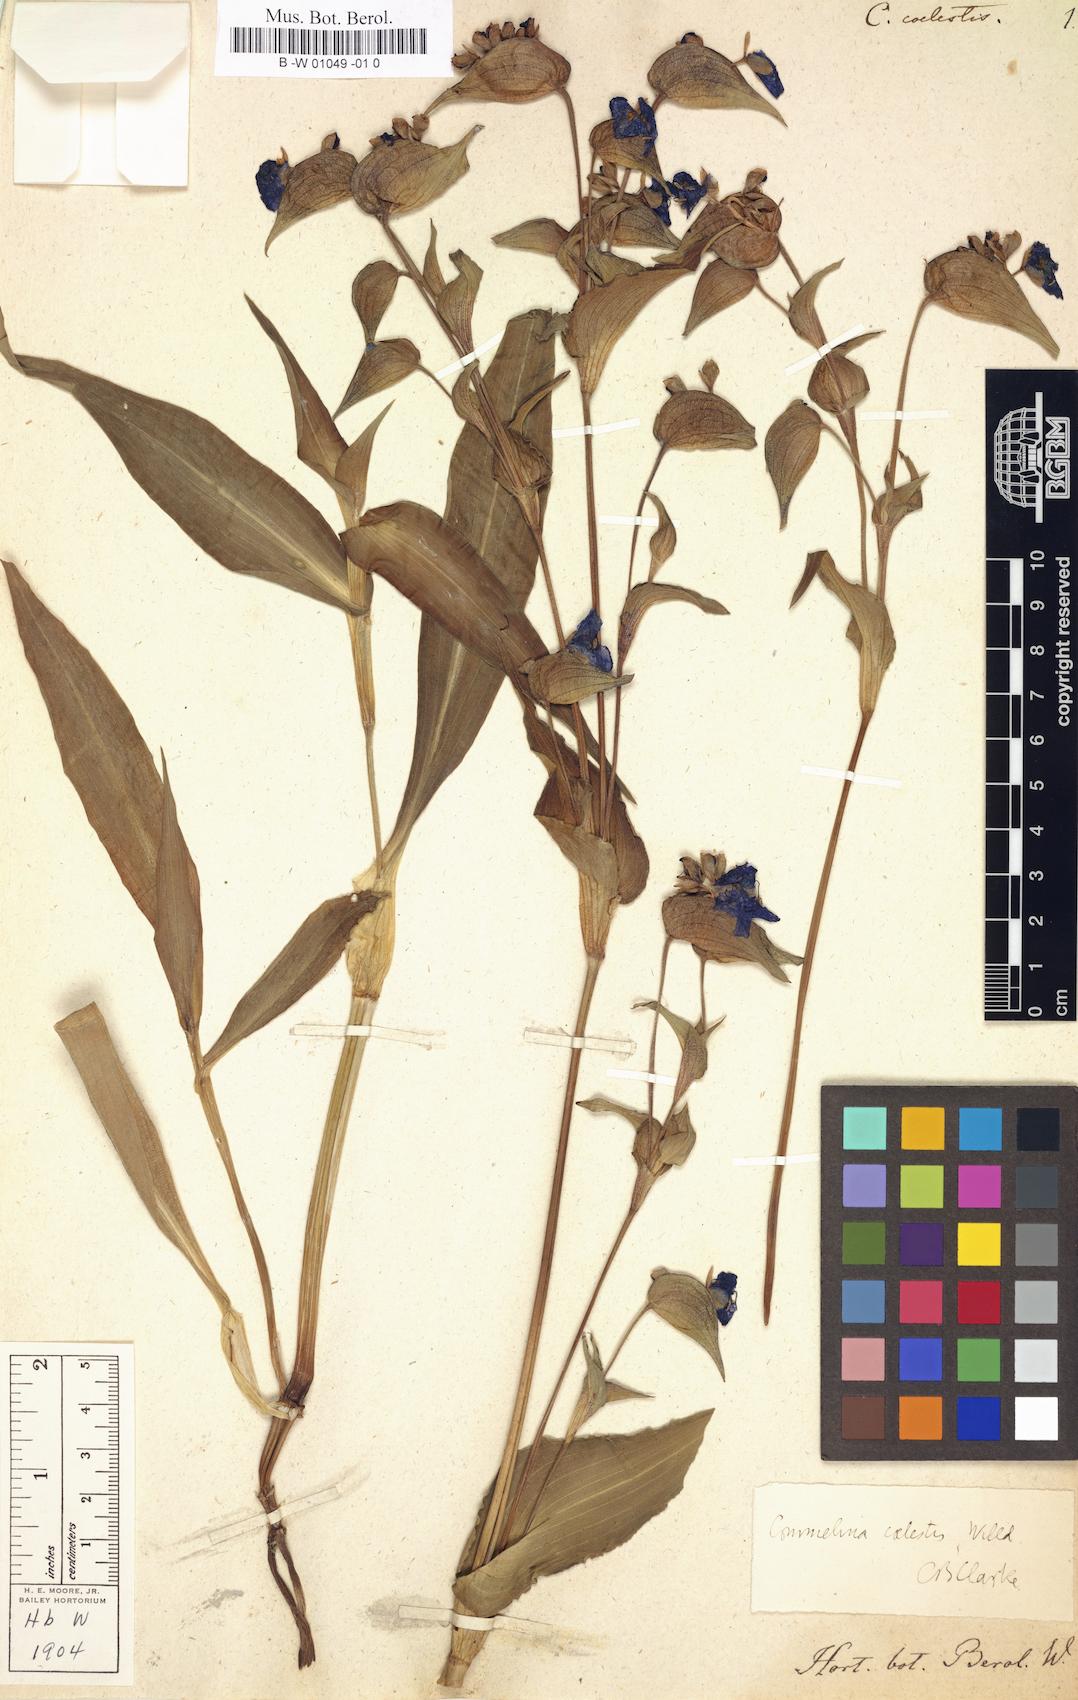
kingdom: Plantae
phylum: Tracheophyta
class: Liliopsida
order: Commelinales
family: Commelinaceae
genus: Commelina
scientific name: Commelina tuberosa
